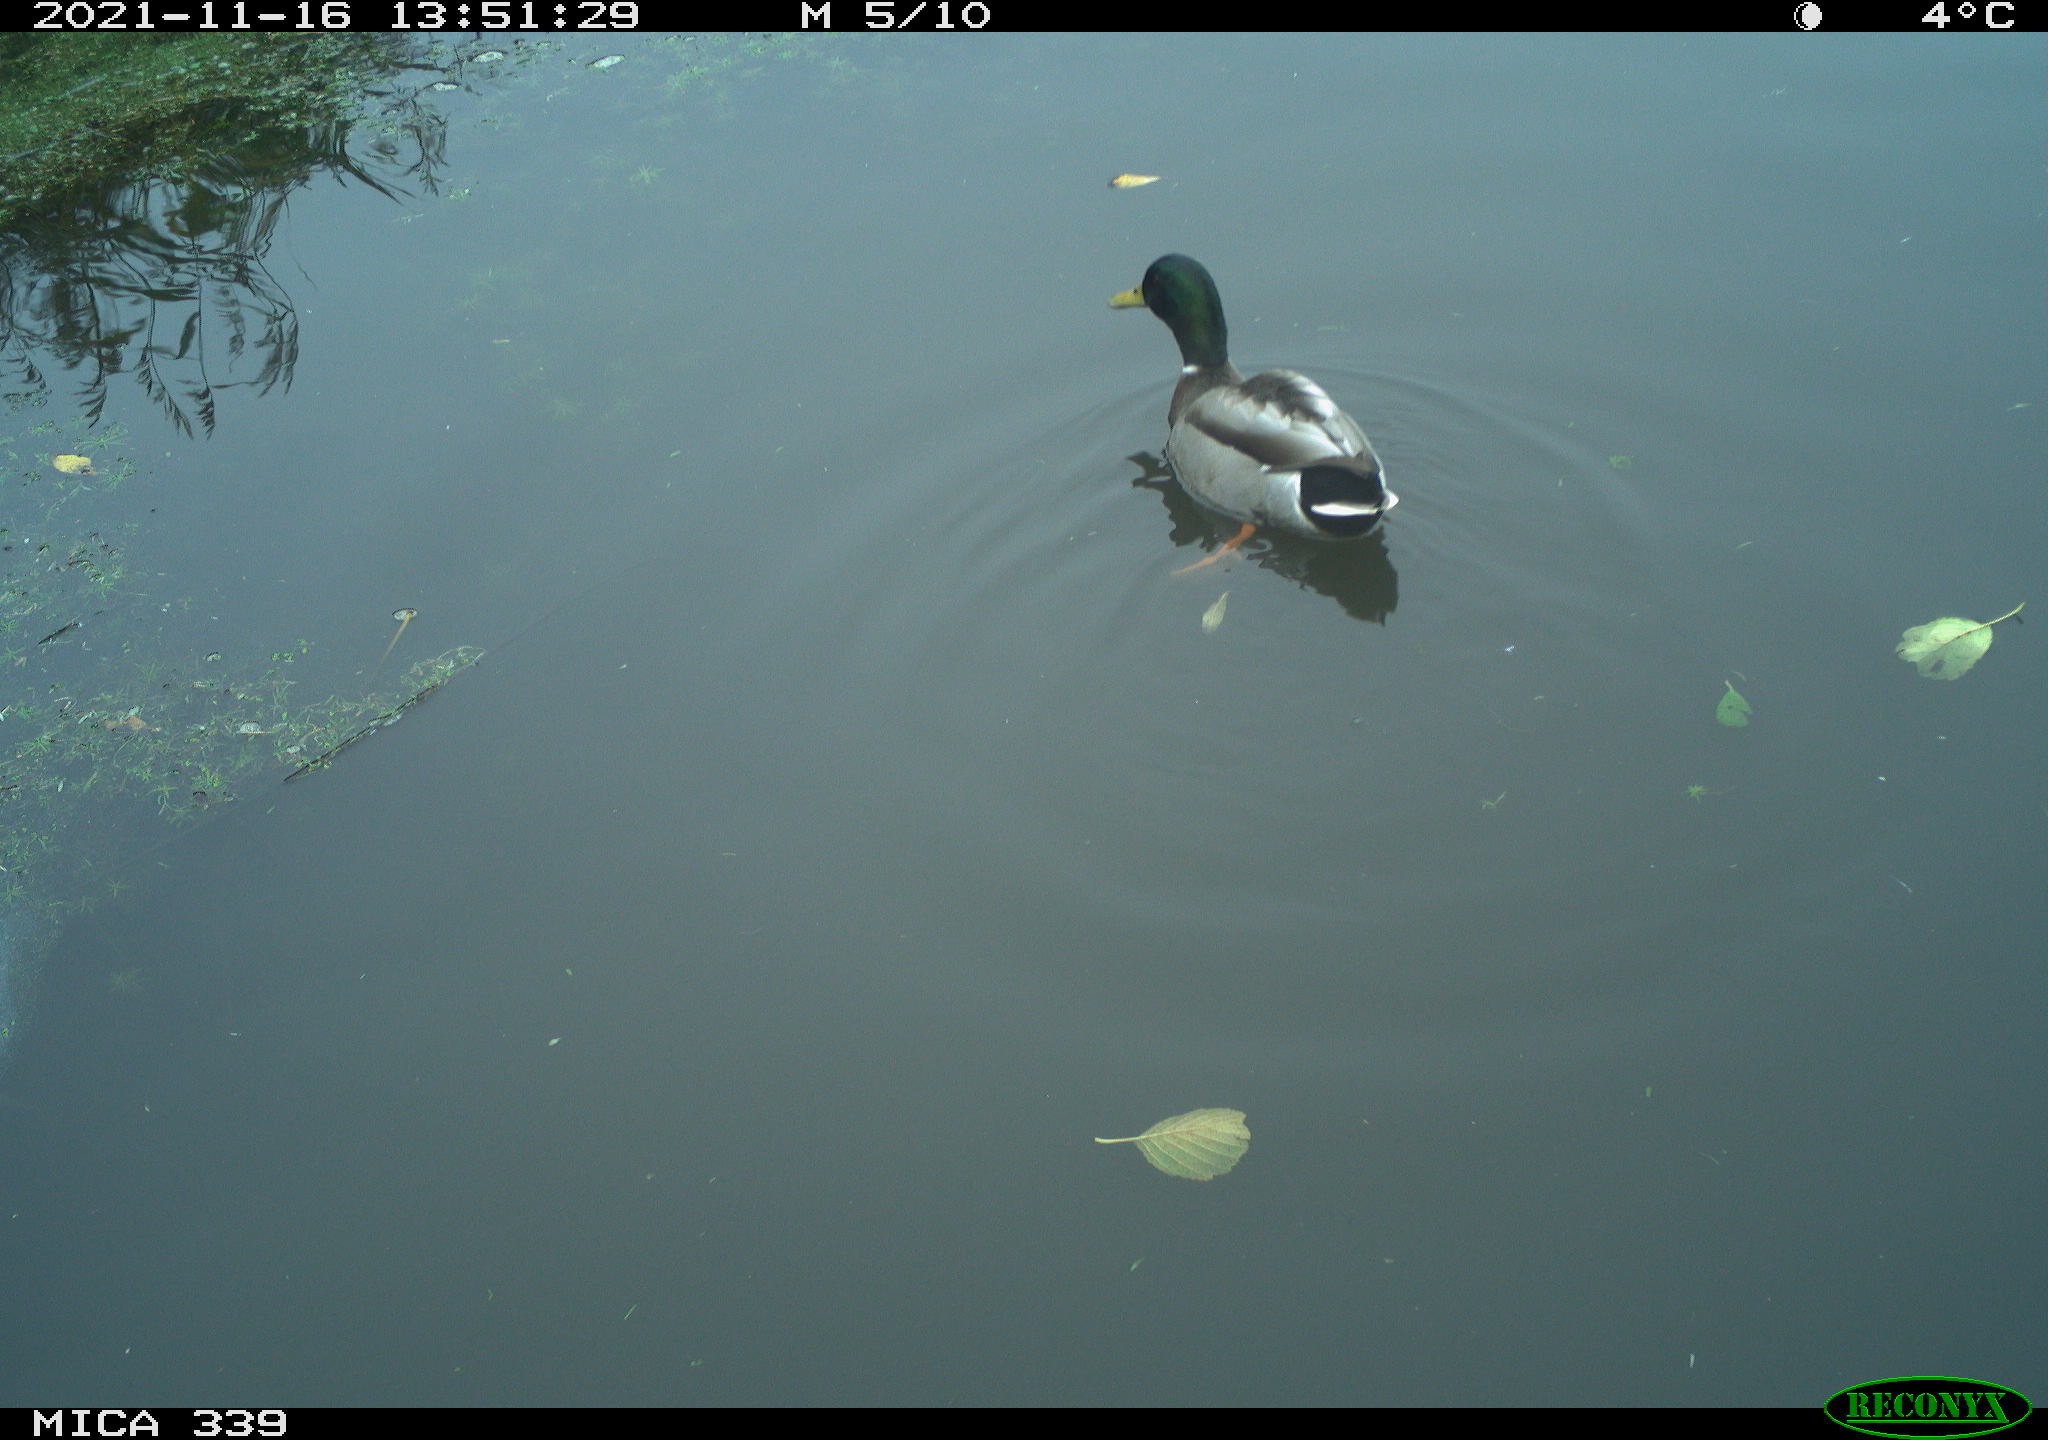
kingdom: Animalia
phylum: Chordata
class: Aves
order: Anseriformes
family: Anatidae
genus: Anas
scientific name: Anas platyrhynchos
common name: Mallard
